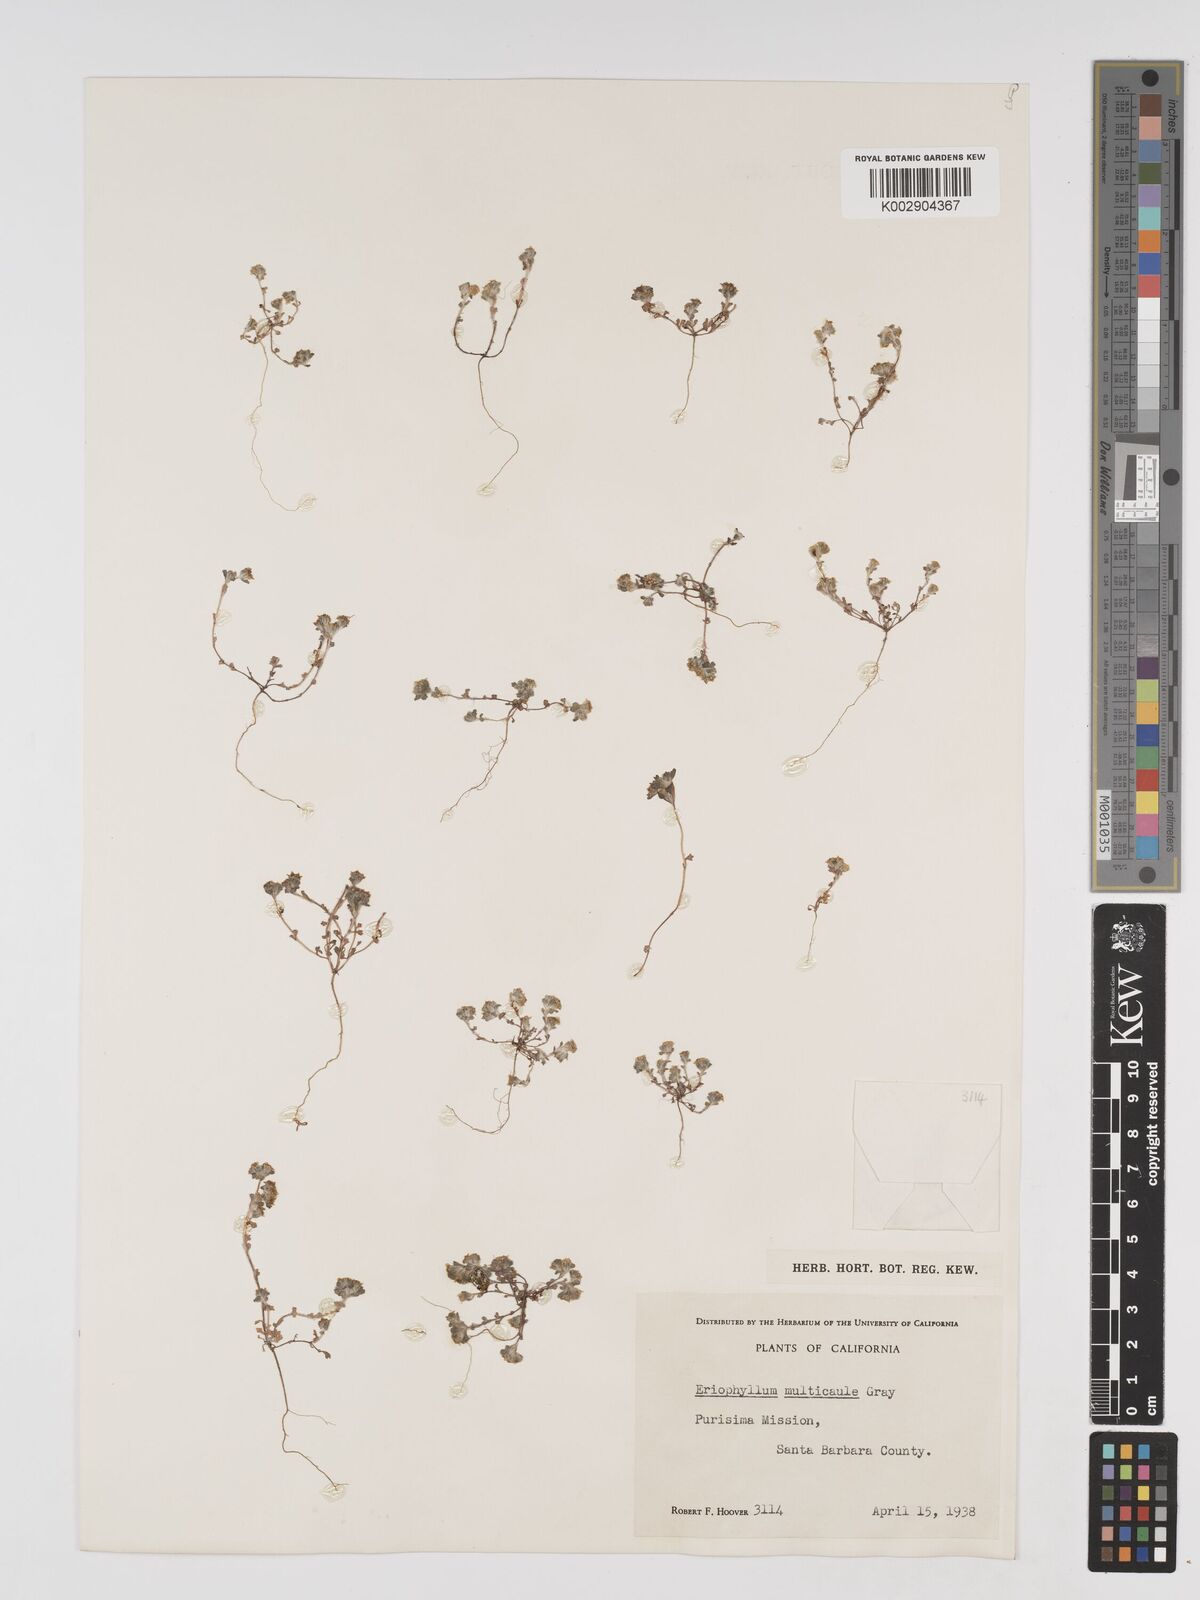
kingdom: Plantae
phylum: Tracheophyta
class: Magnoliopsida
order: Asterales
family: Asteraceae
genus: Eriophyllum
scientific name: Eriophyllum multicaule
